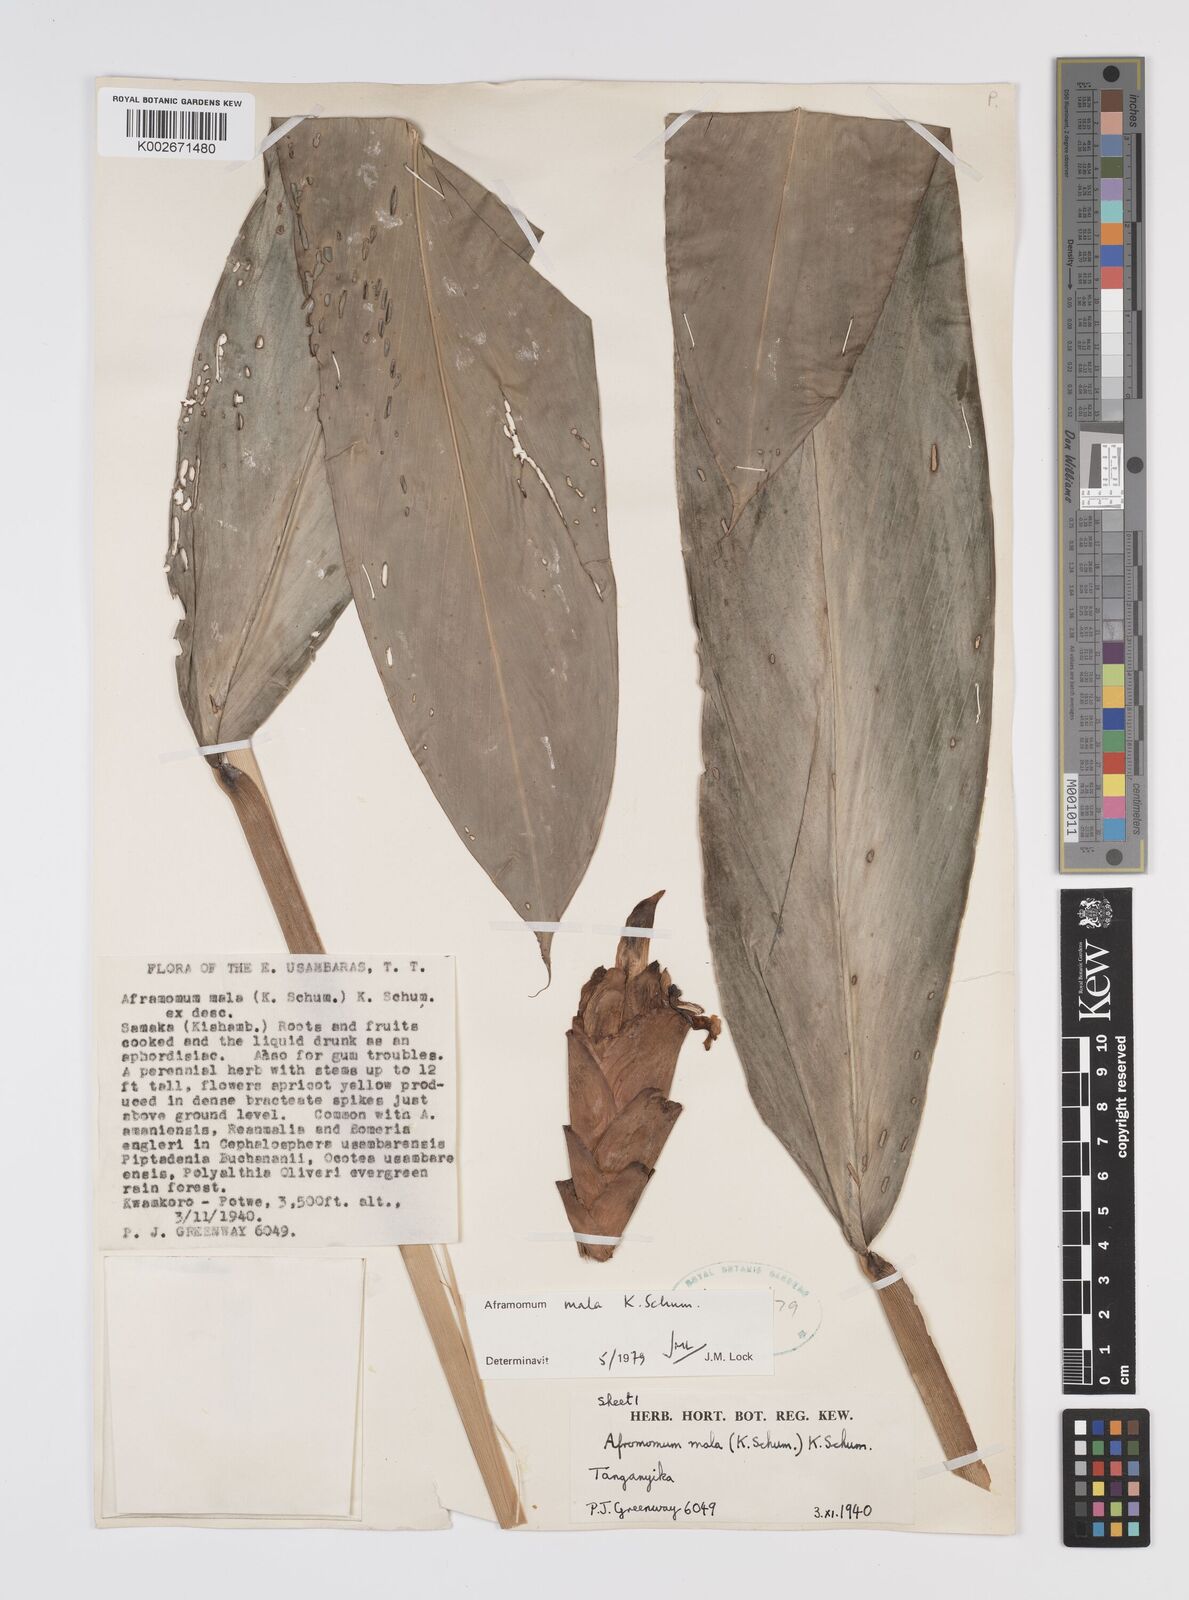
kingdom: Plantae
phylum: Tracheophyta
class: Liliopsida
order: Zingiberales
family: Zingiberaceae
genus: Aframomum
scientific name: Aframomum mala
